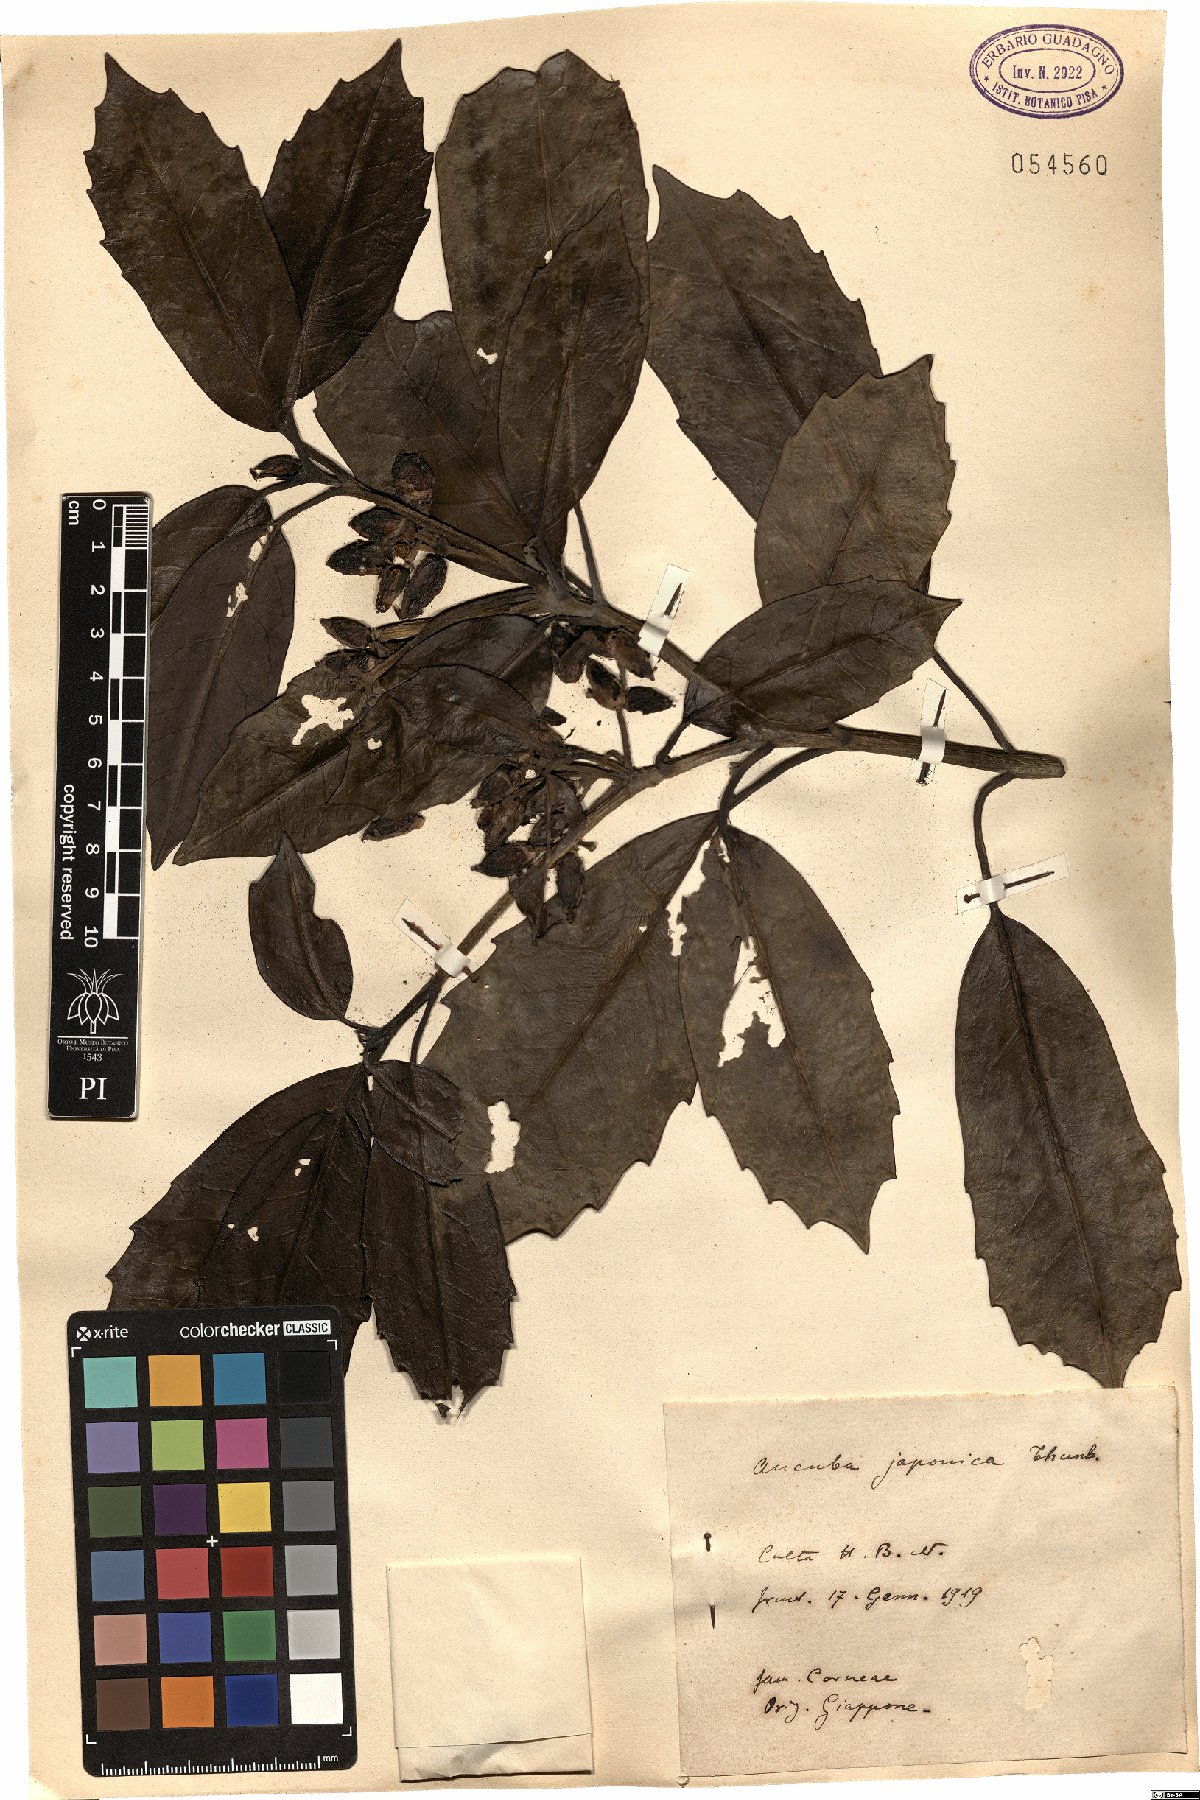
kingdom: Plantae
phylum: Tracheophyta
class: Magnoliopsida
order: Garryales
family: Garryaceae
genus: Aucuba
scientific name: Aucuba japonica
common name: Spotted-laurel
